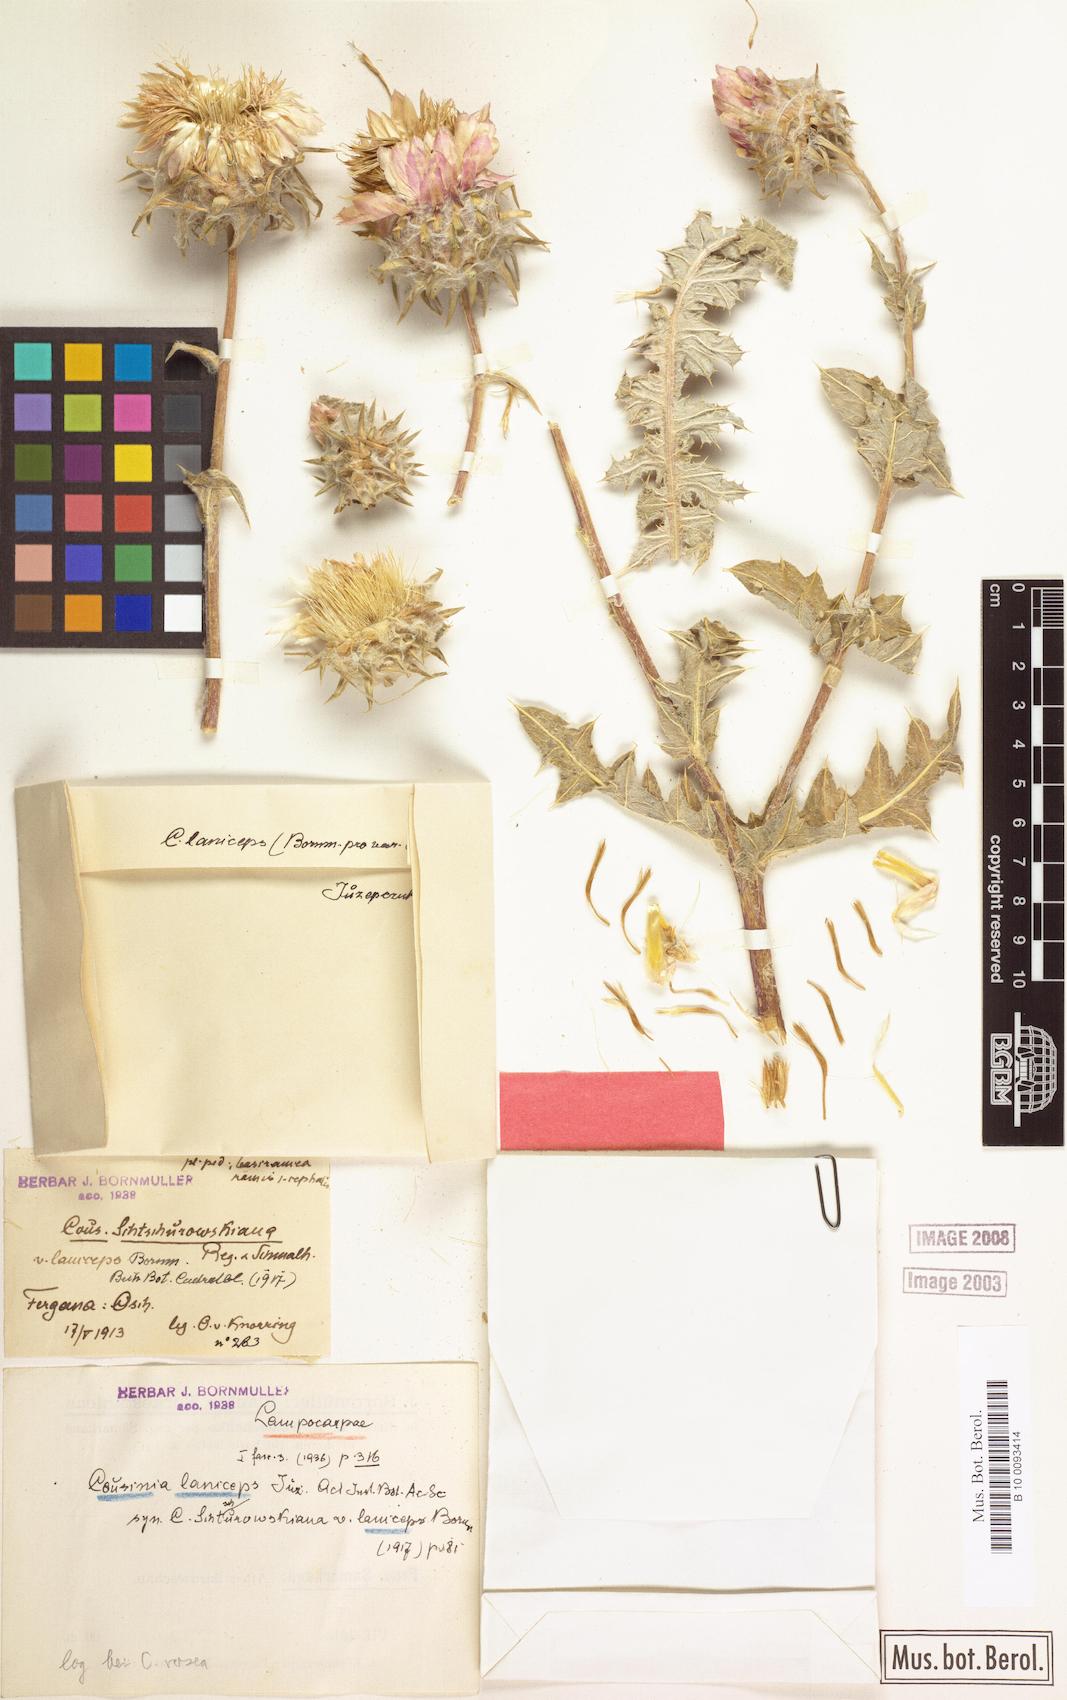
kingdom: Plantae
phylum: Tracheophyta
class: Magnoliopsida
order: Asterales
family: Asteraceae
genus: Cousinia
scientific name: Cousinia laniceps
